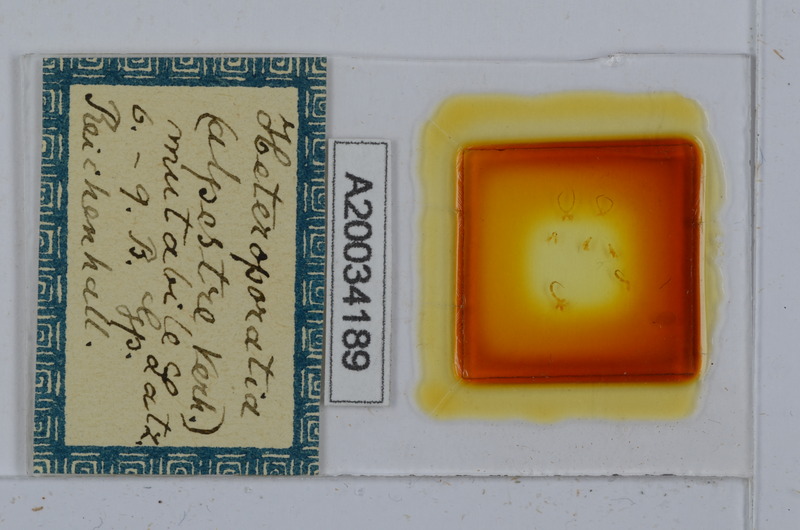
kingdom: Animalia
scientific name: Animalia
